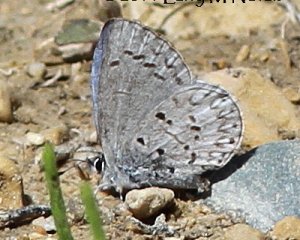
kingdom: Animalia
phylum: Arthropoda
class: Insecta
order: Lepidoptera
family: Lycaenidae
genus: Celastrina
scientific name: Celastrina lucia
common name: Northern Spring Azure
